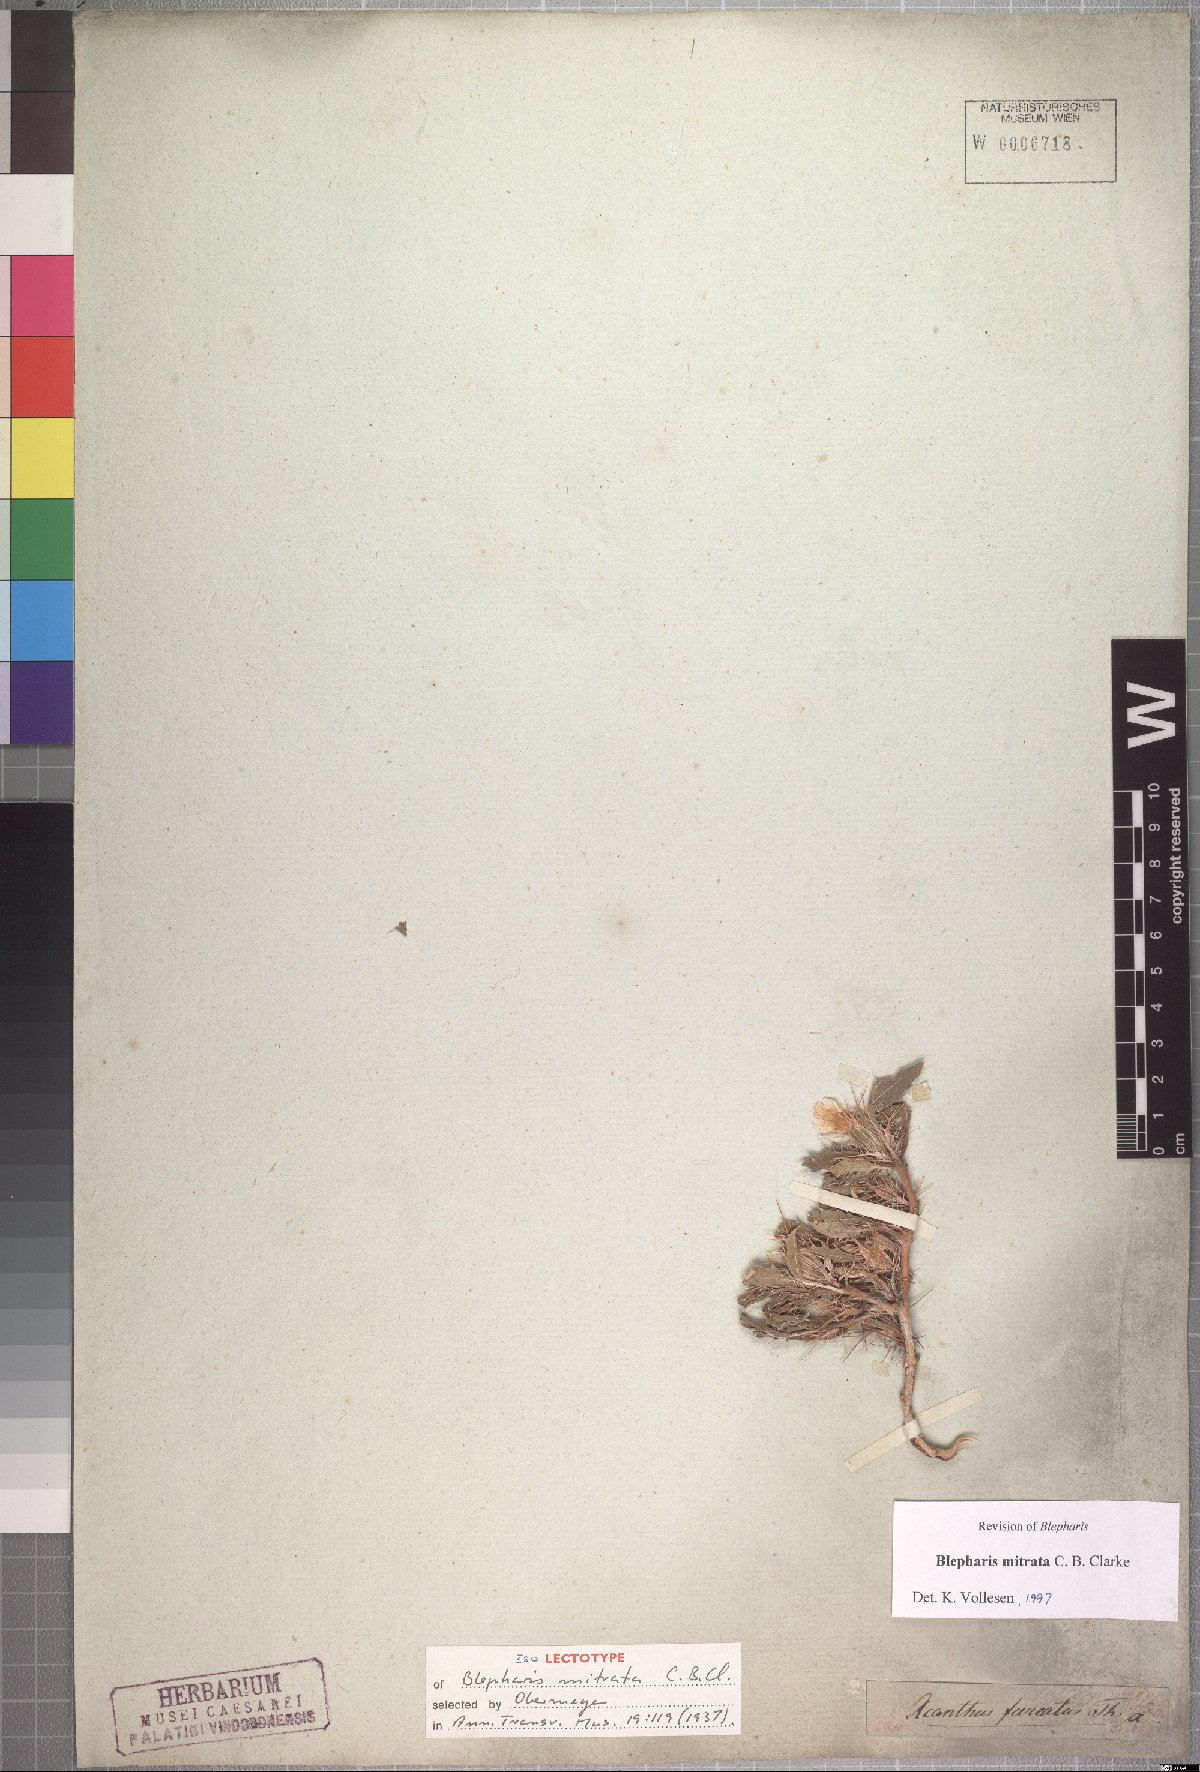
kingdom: Plantae
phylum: Tracheophyta
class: Magnoliopsida
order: Lamiales
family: Acanthaceae
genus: Blepharis
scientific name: Blepharis mitrata
